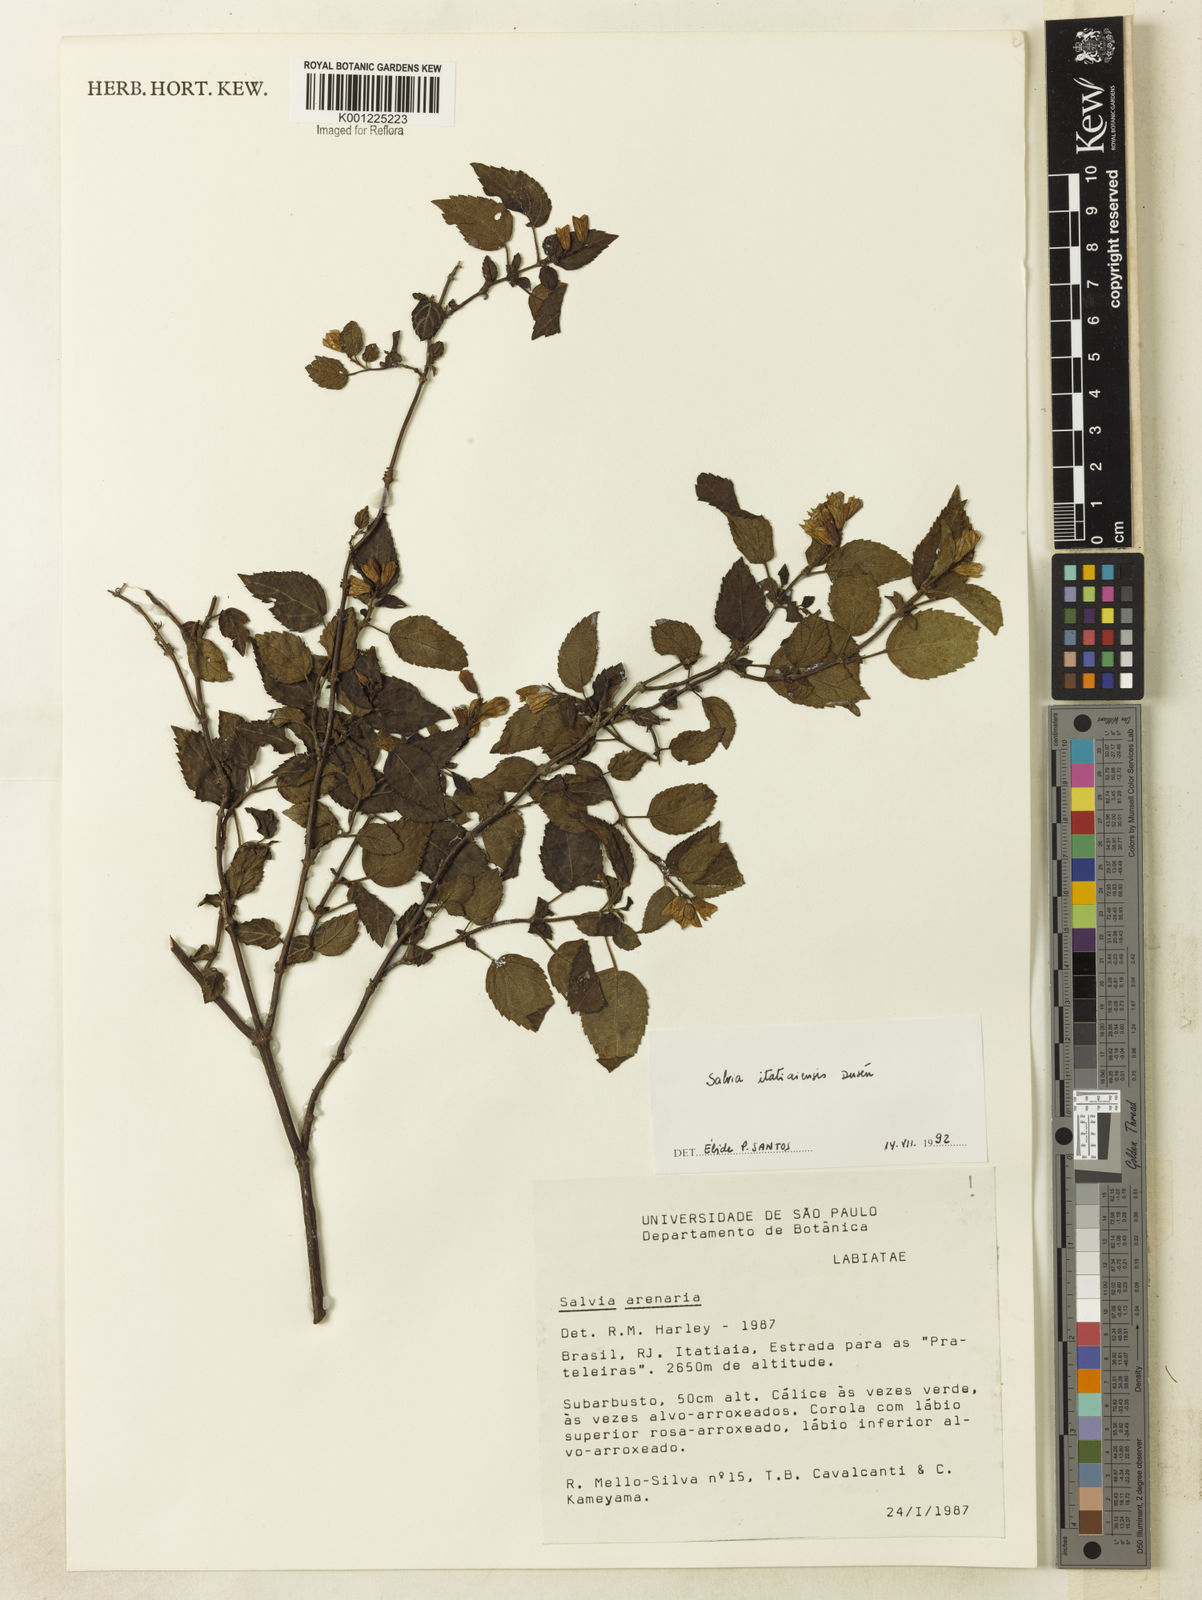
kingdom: Plantae
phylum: Tracheophyta
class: Magnoliopsida
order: Lamiales
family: Lamiaceae
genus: Salvia
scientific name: Salvia
